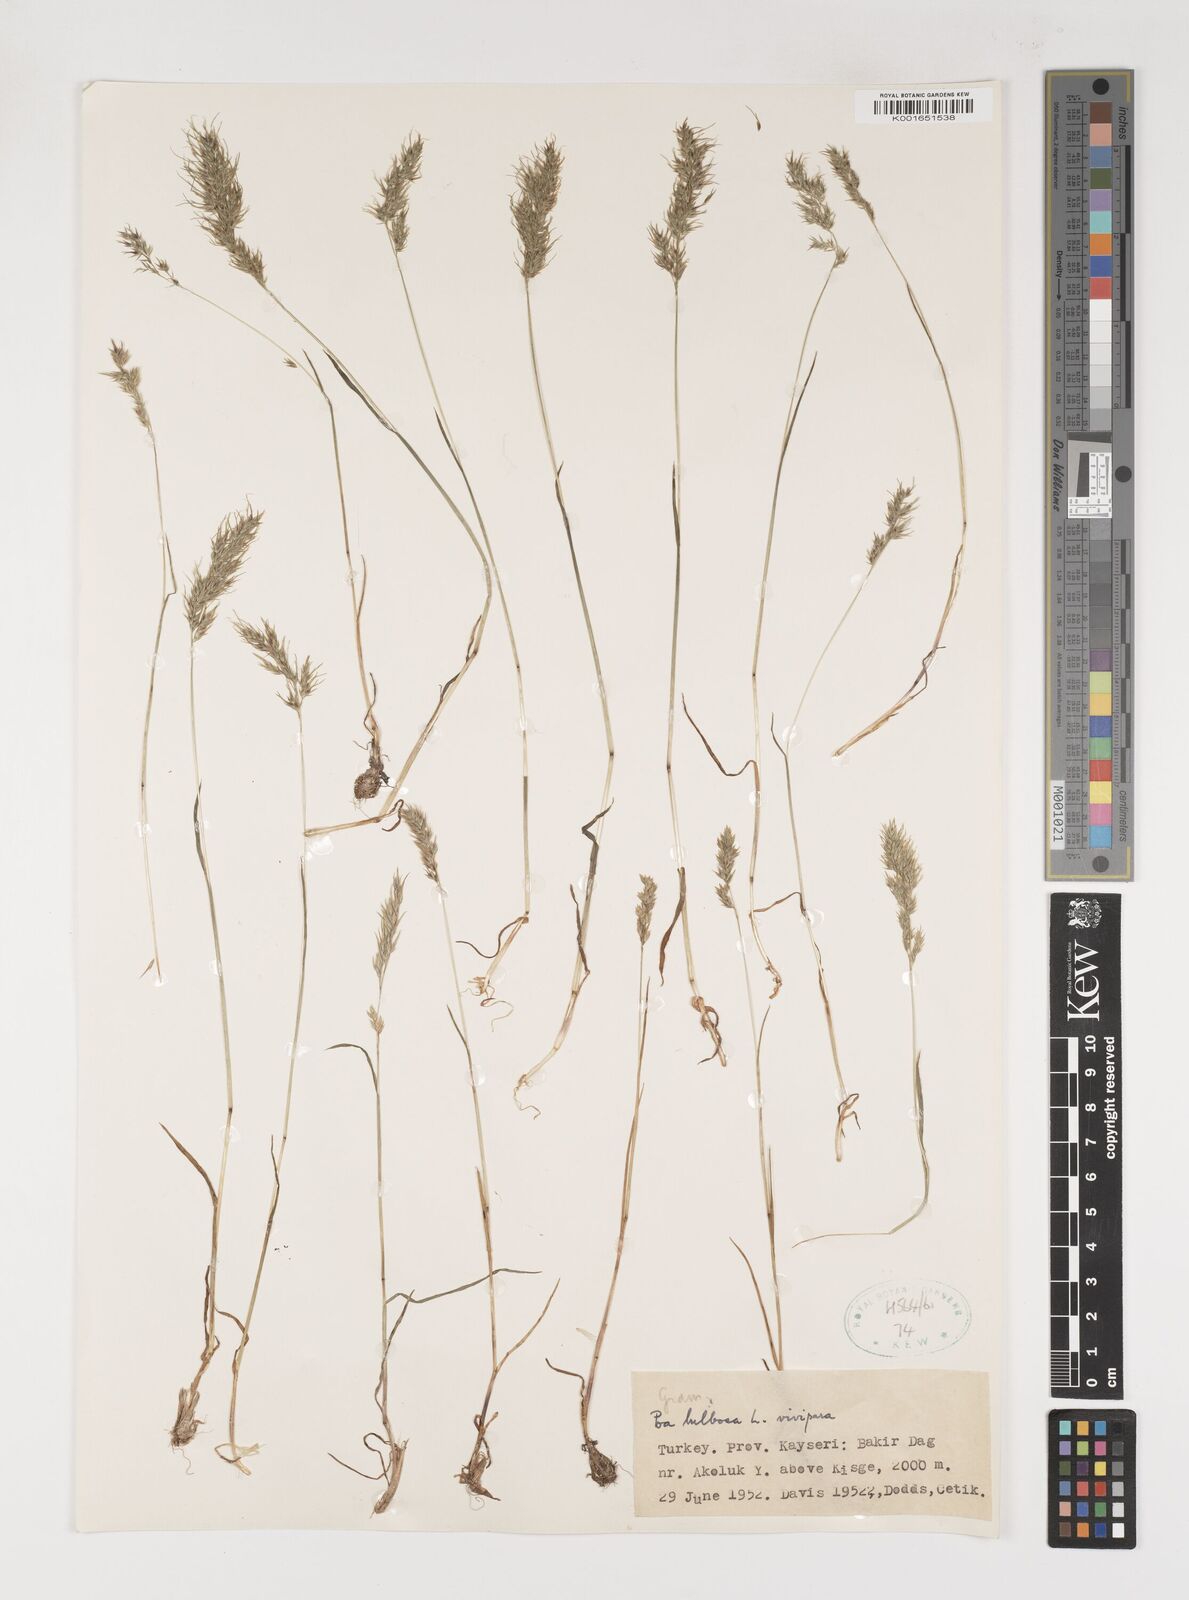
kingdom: Plantae
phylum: Tracheophyta
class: Liliopsida
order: Poales
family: Poaceae
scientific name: Poaceae
